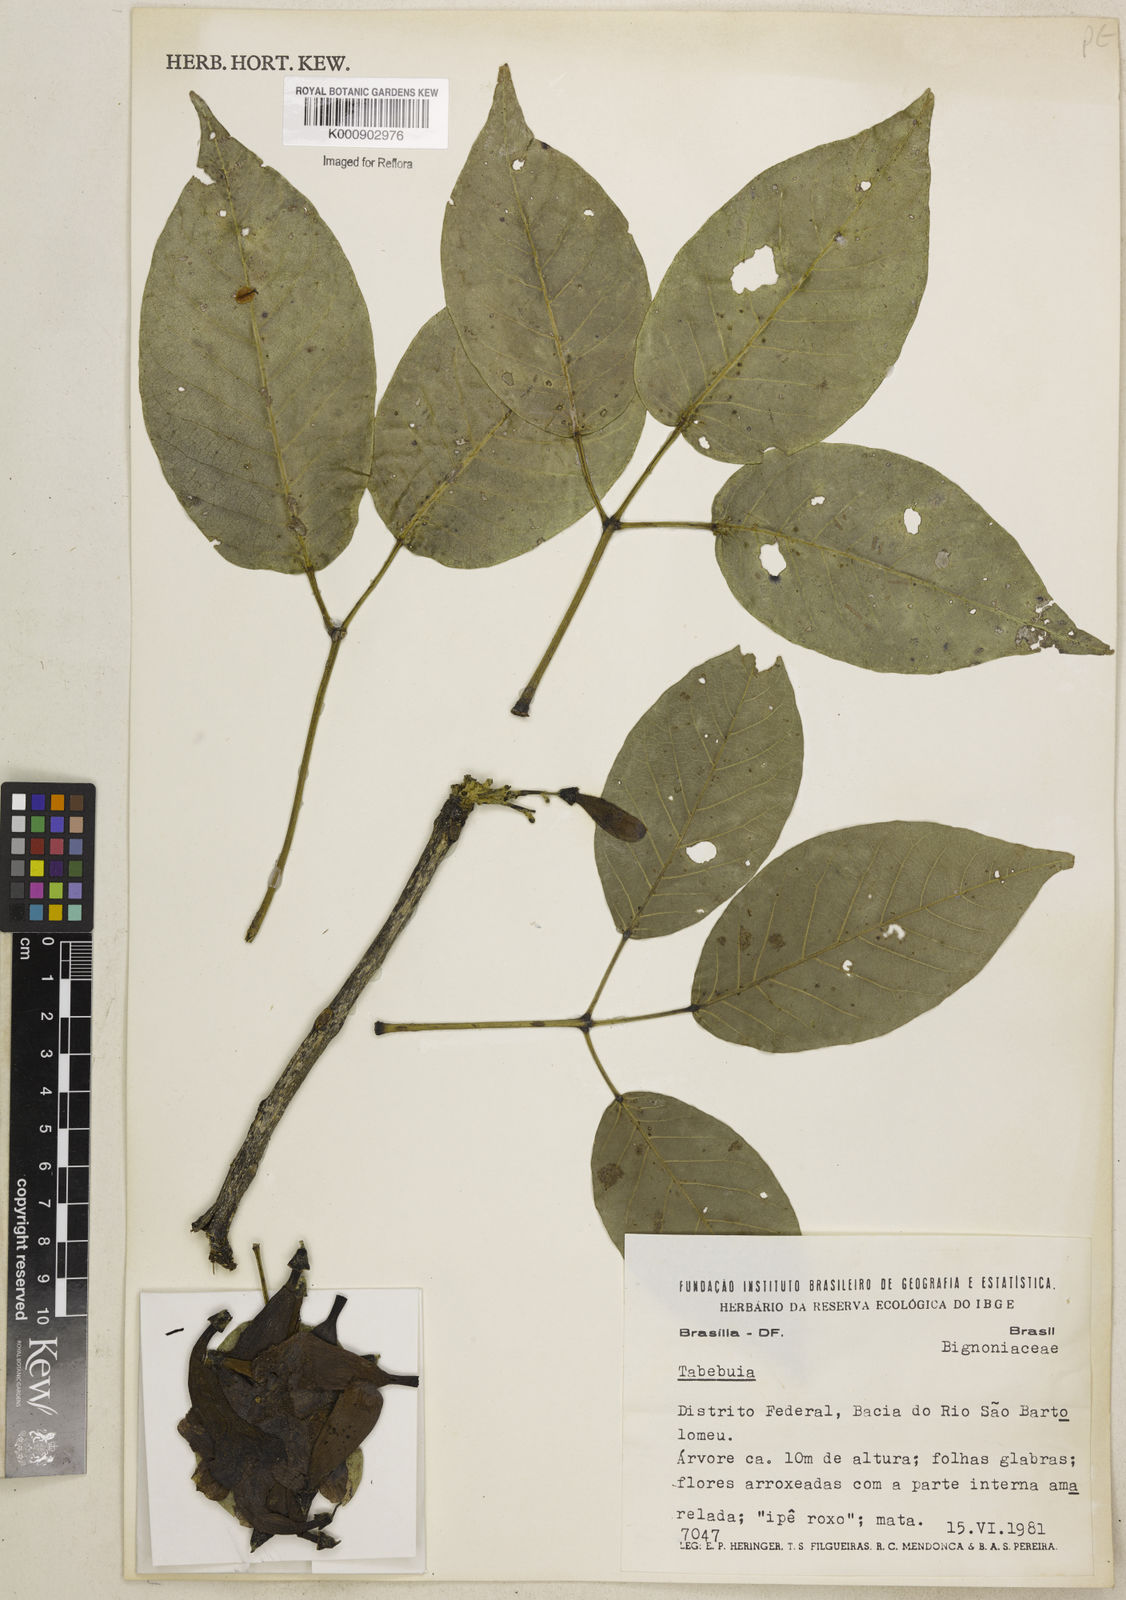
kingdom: Plantae
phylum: Tracheophyta
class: Magnoliopsida
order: Lamiales
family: Bignoniaceae
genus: Tabebuia
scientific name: Tabebuia
